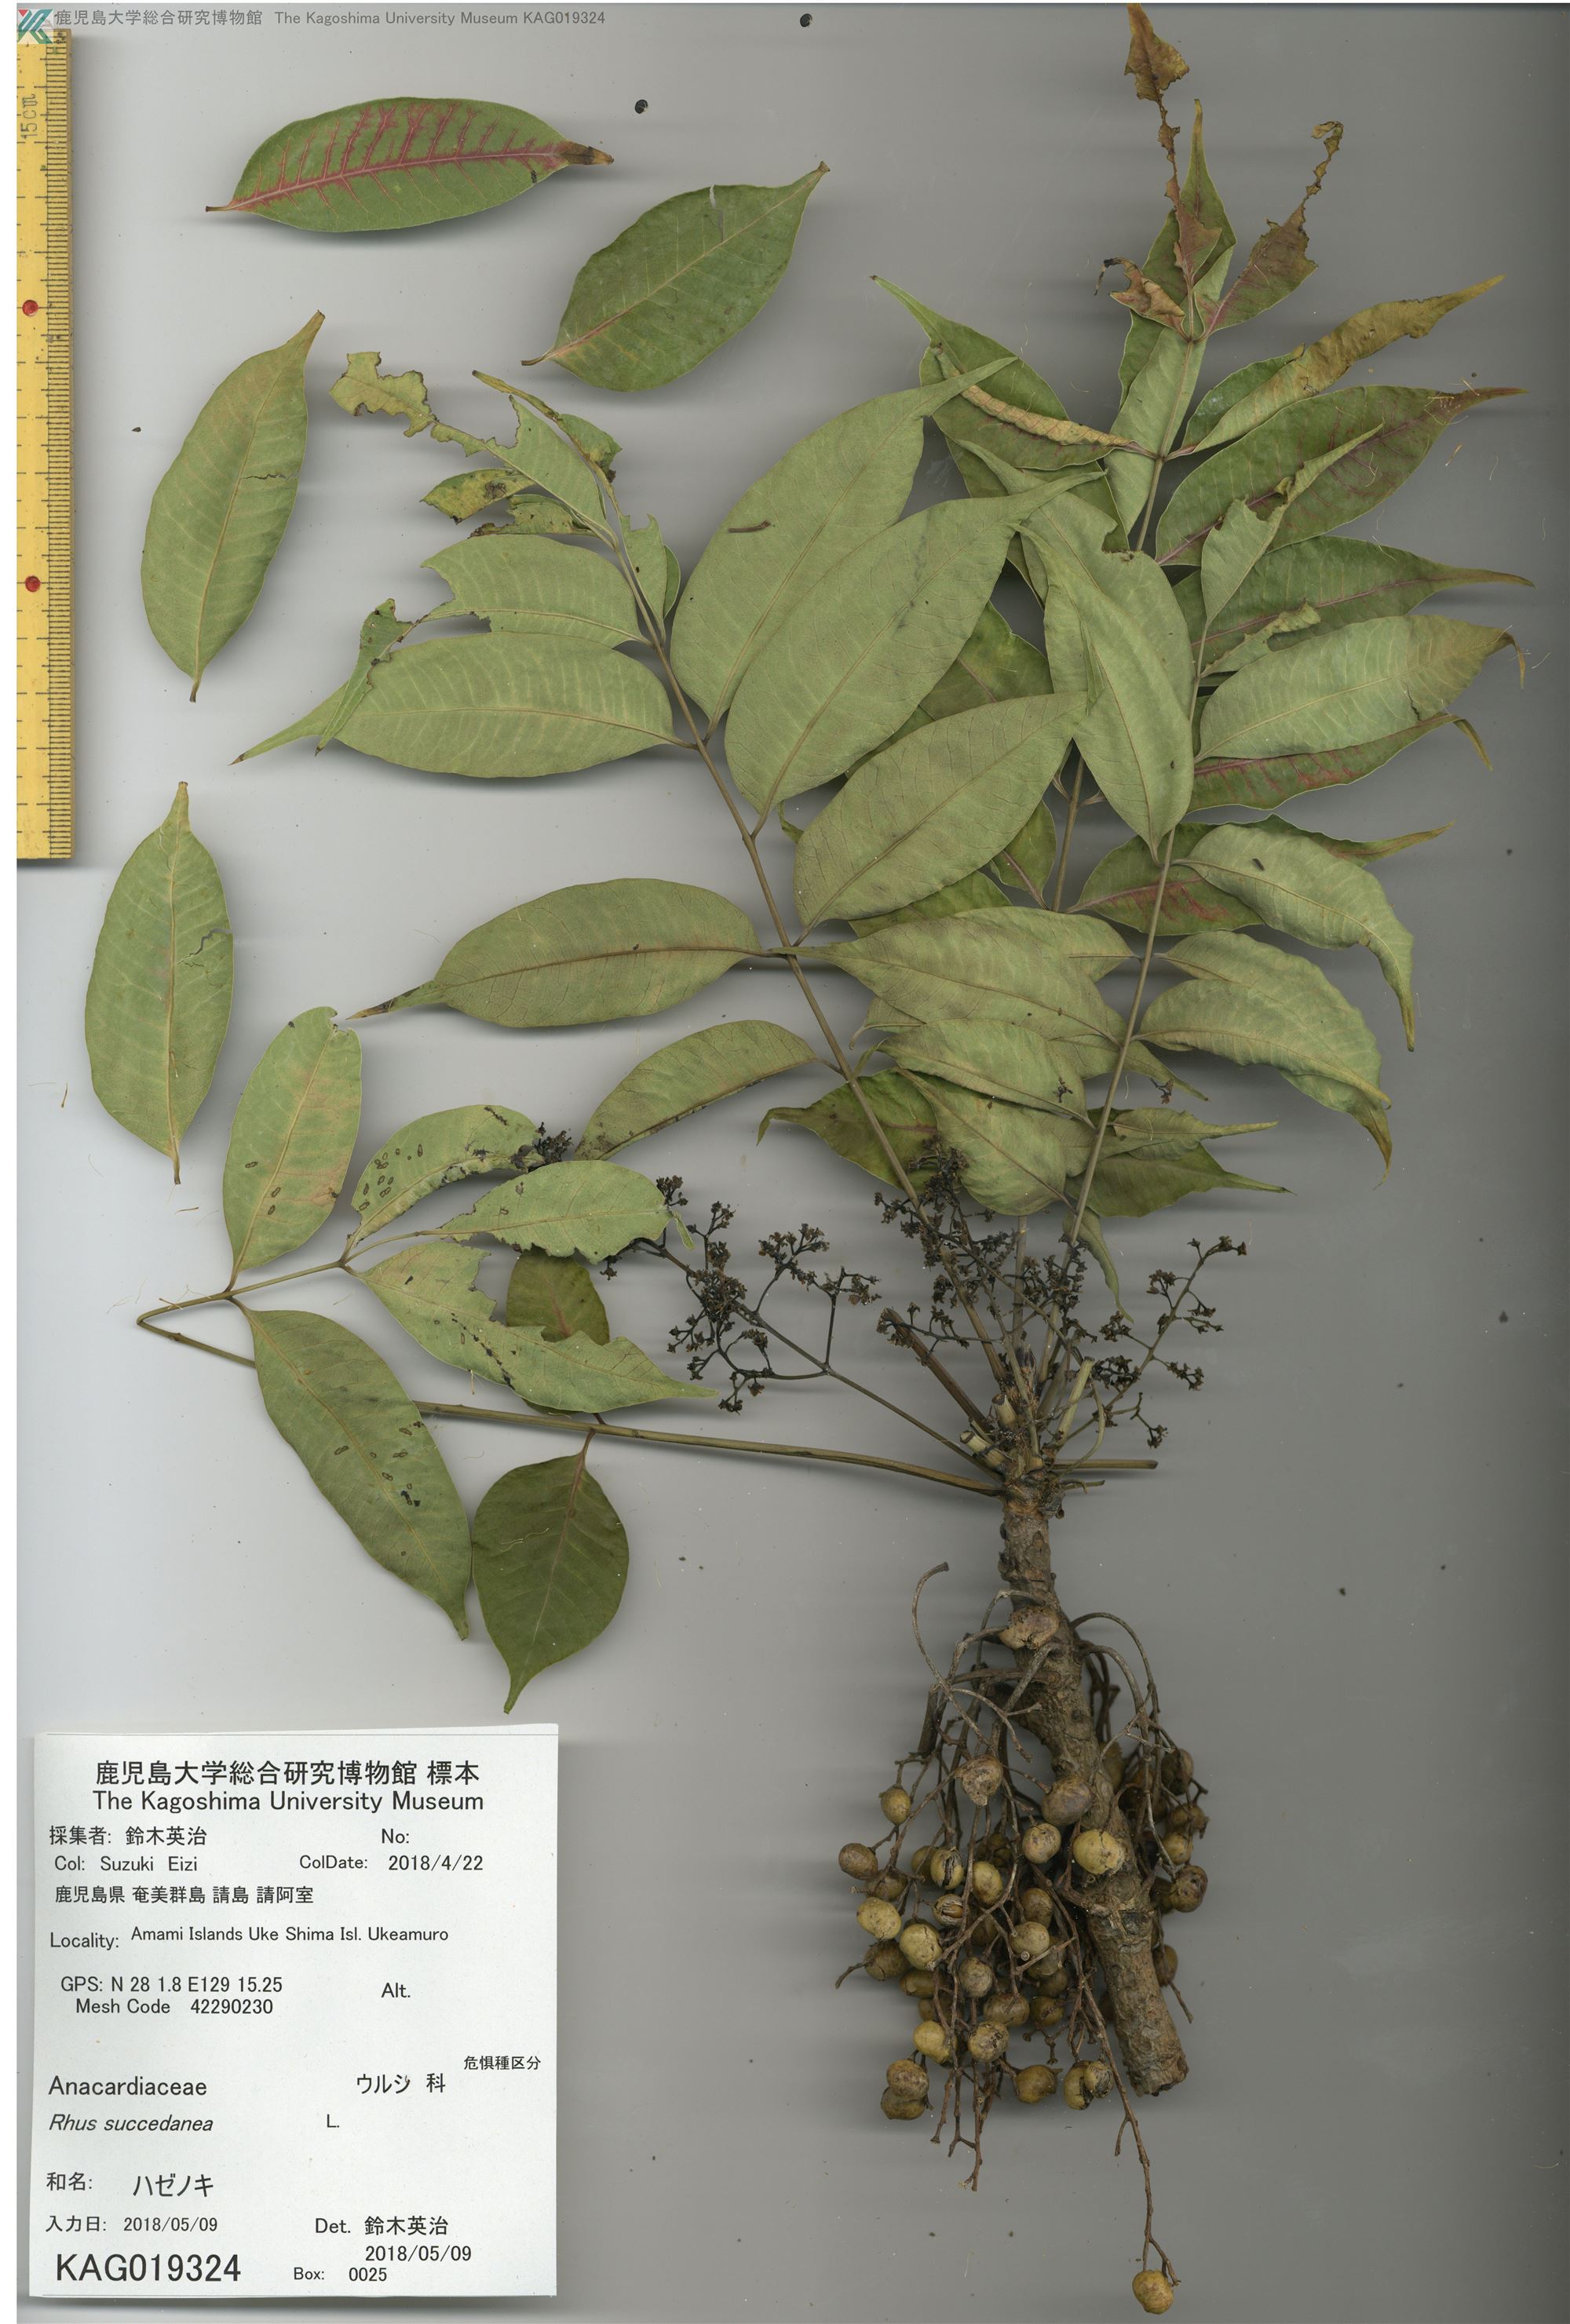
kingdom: Plantae
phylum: Tracheophyta
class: Magnoliopsida
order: Sapindales
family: Anacardiaceae
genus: Toxicodendron
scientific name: Toxicodendron succedaneum
